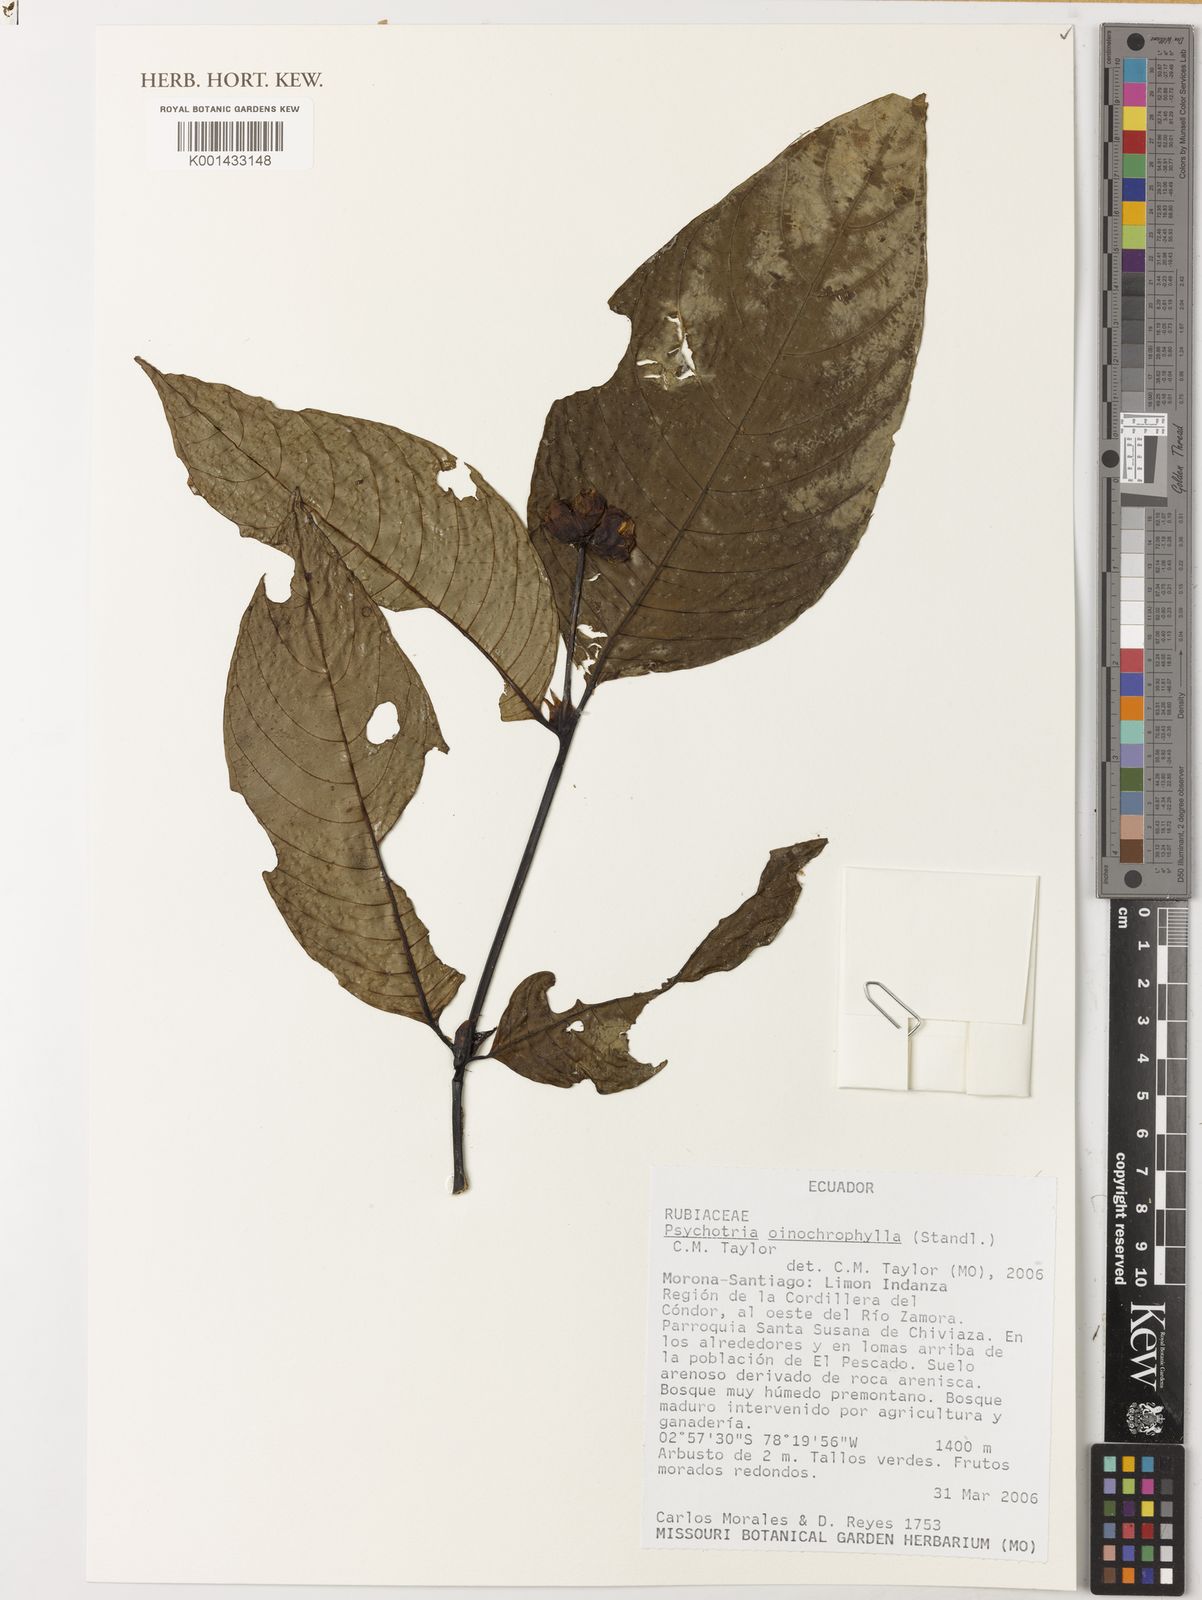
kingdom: Plantae
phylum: Tracheophyta
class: Magnoliopsida
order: Gentianales
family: Rubiaceae
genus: Psychotria
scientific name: Psychotria oinochrophylla
